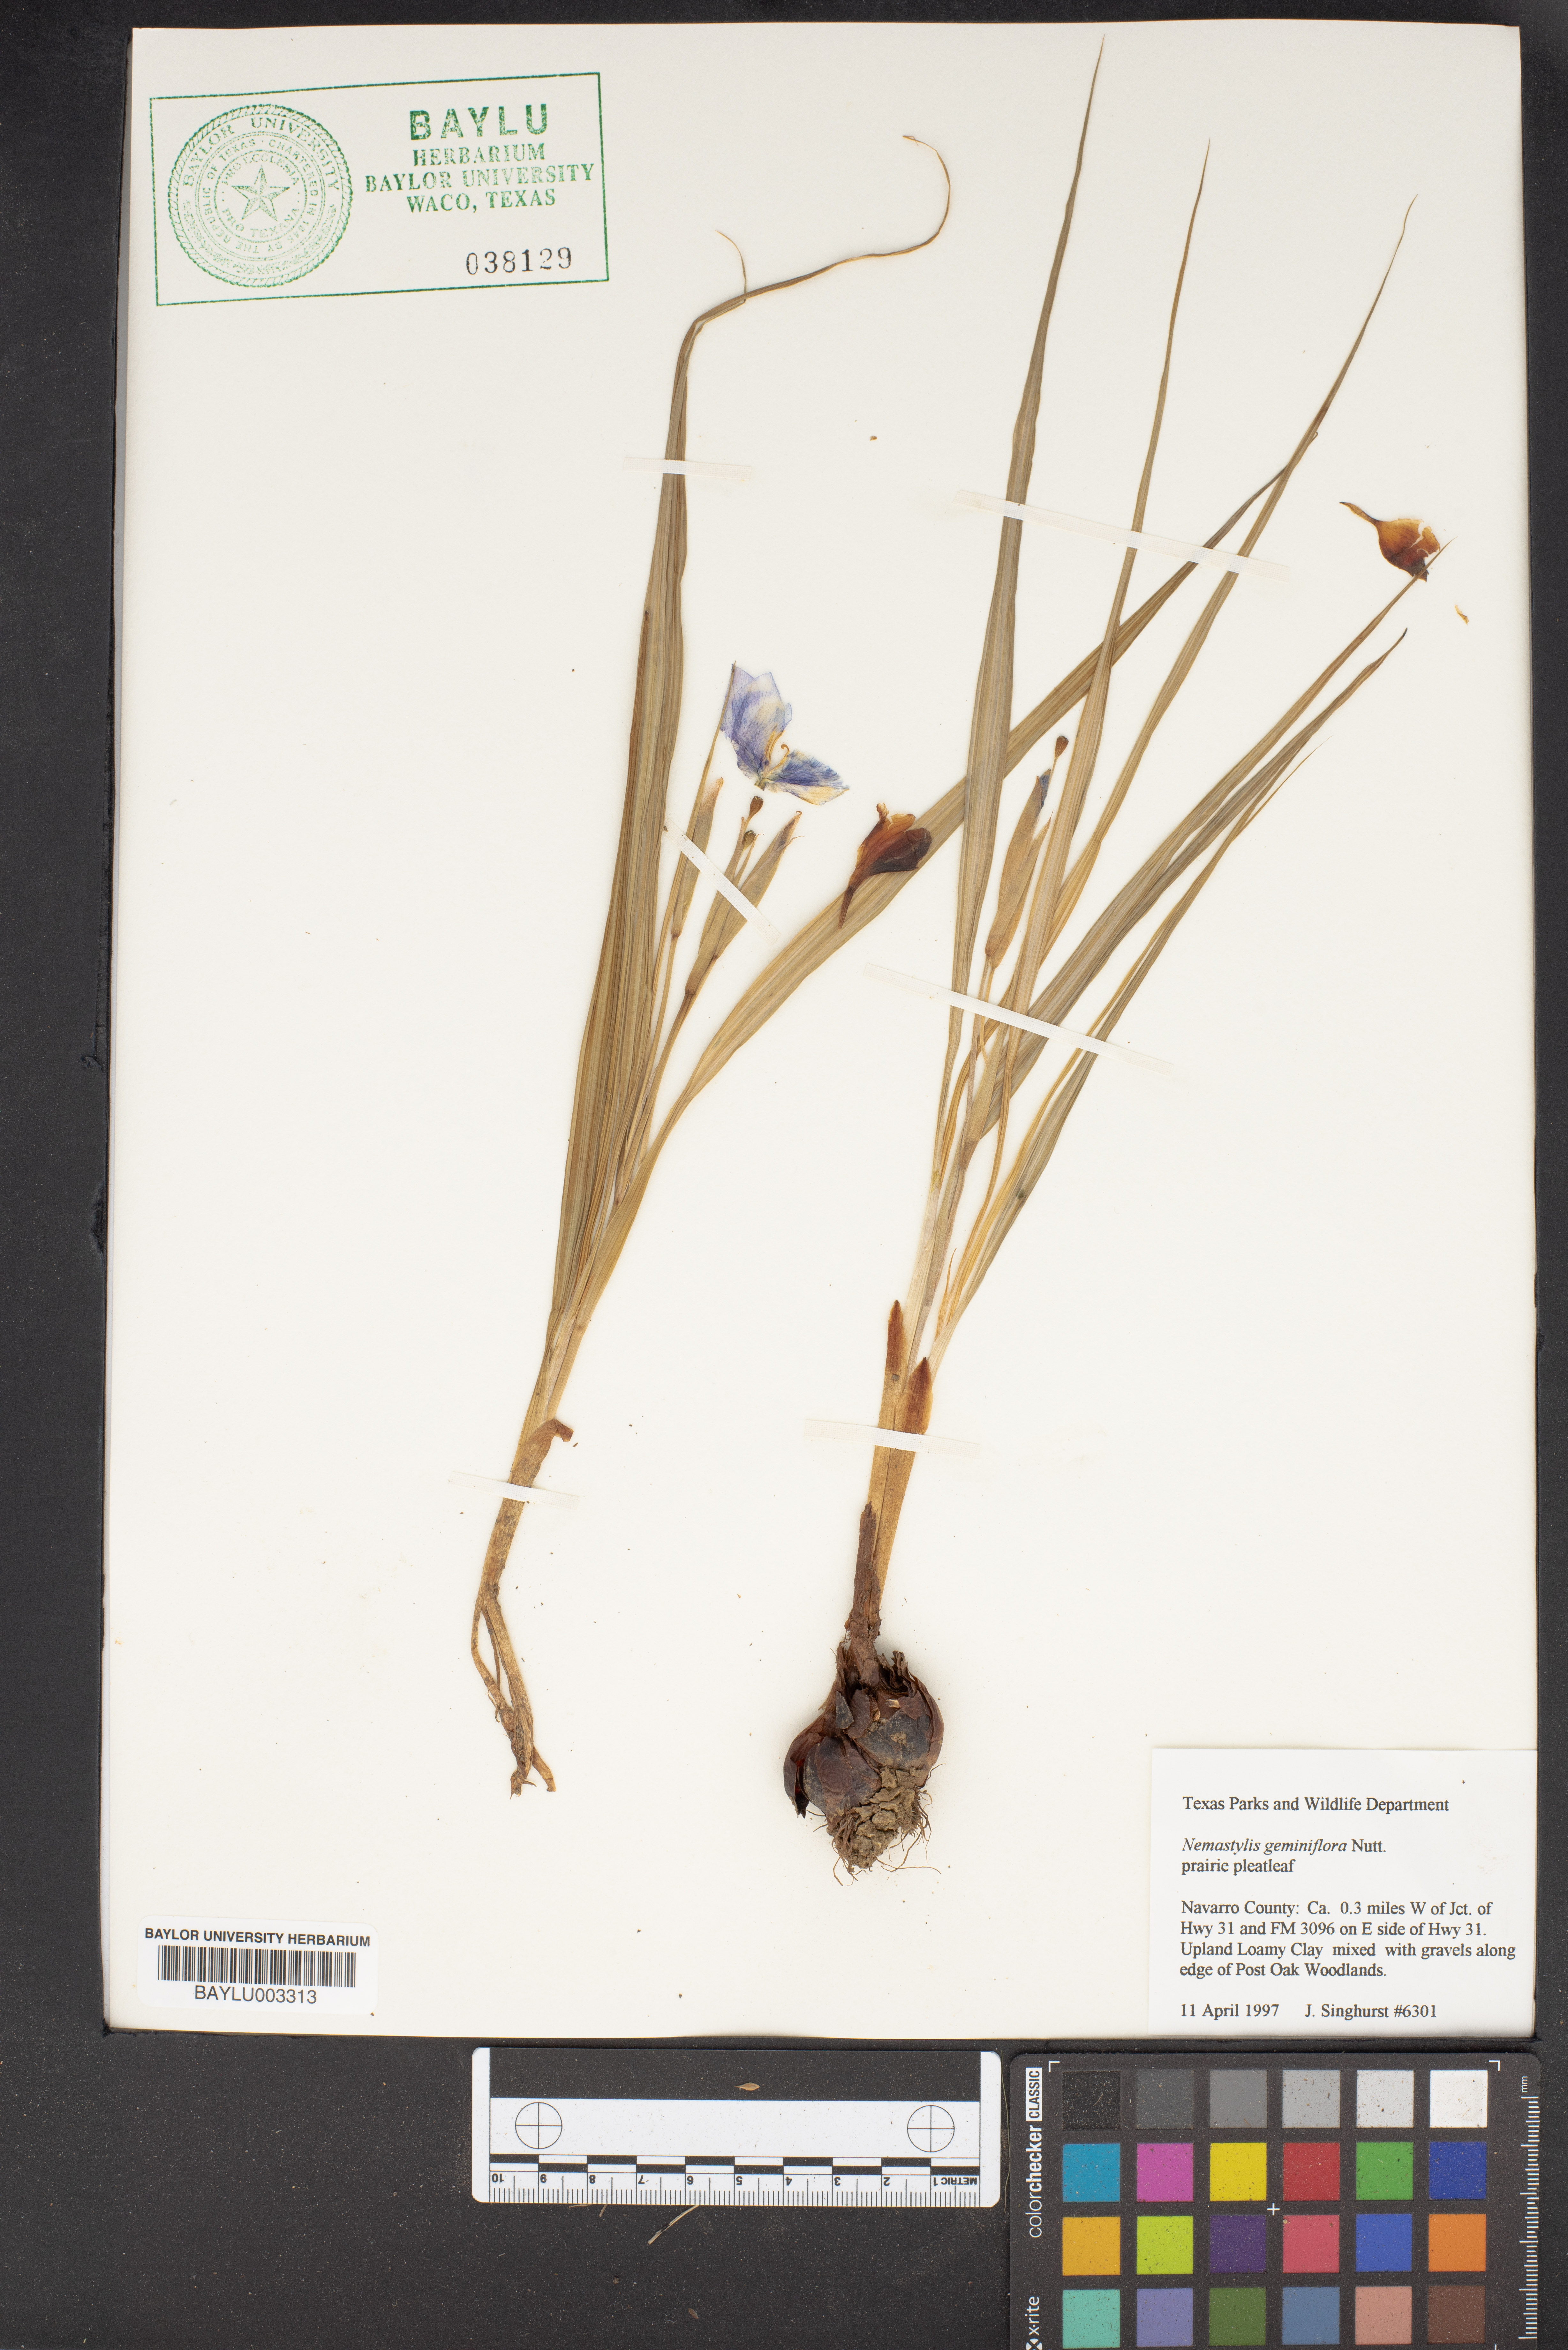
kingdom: Plantae
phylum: Tracheophyta
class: Liliopsida
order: Asparagales
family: Iridaceae
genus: Nemastylis
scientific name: Nemastylis geminiflora
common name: Prairie celestial
